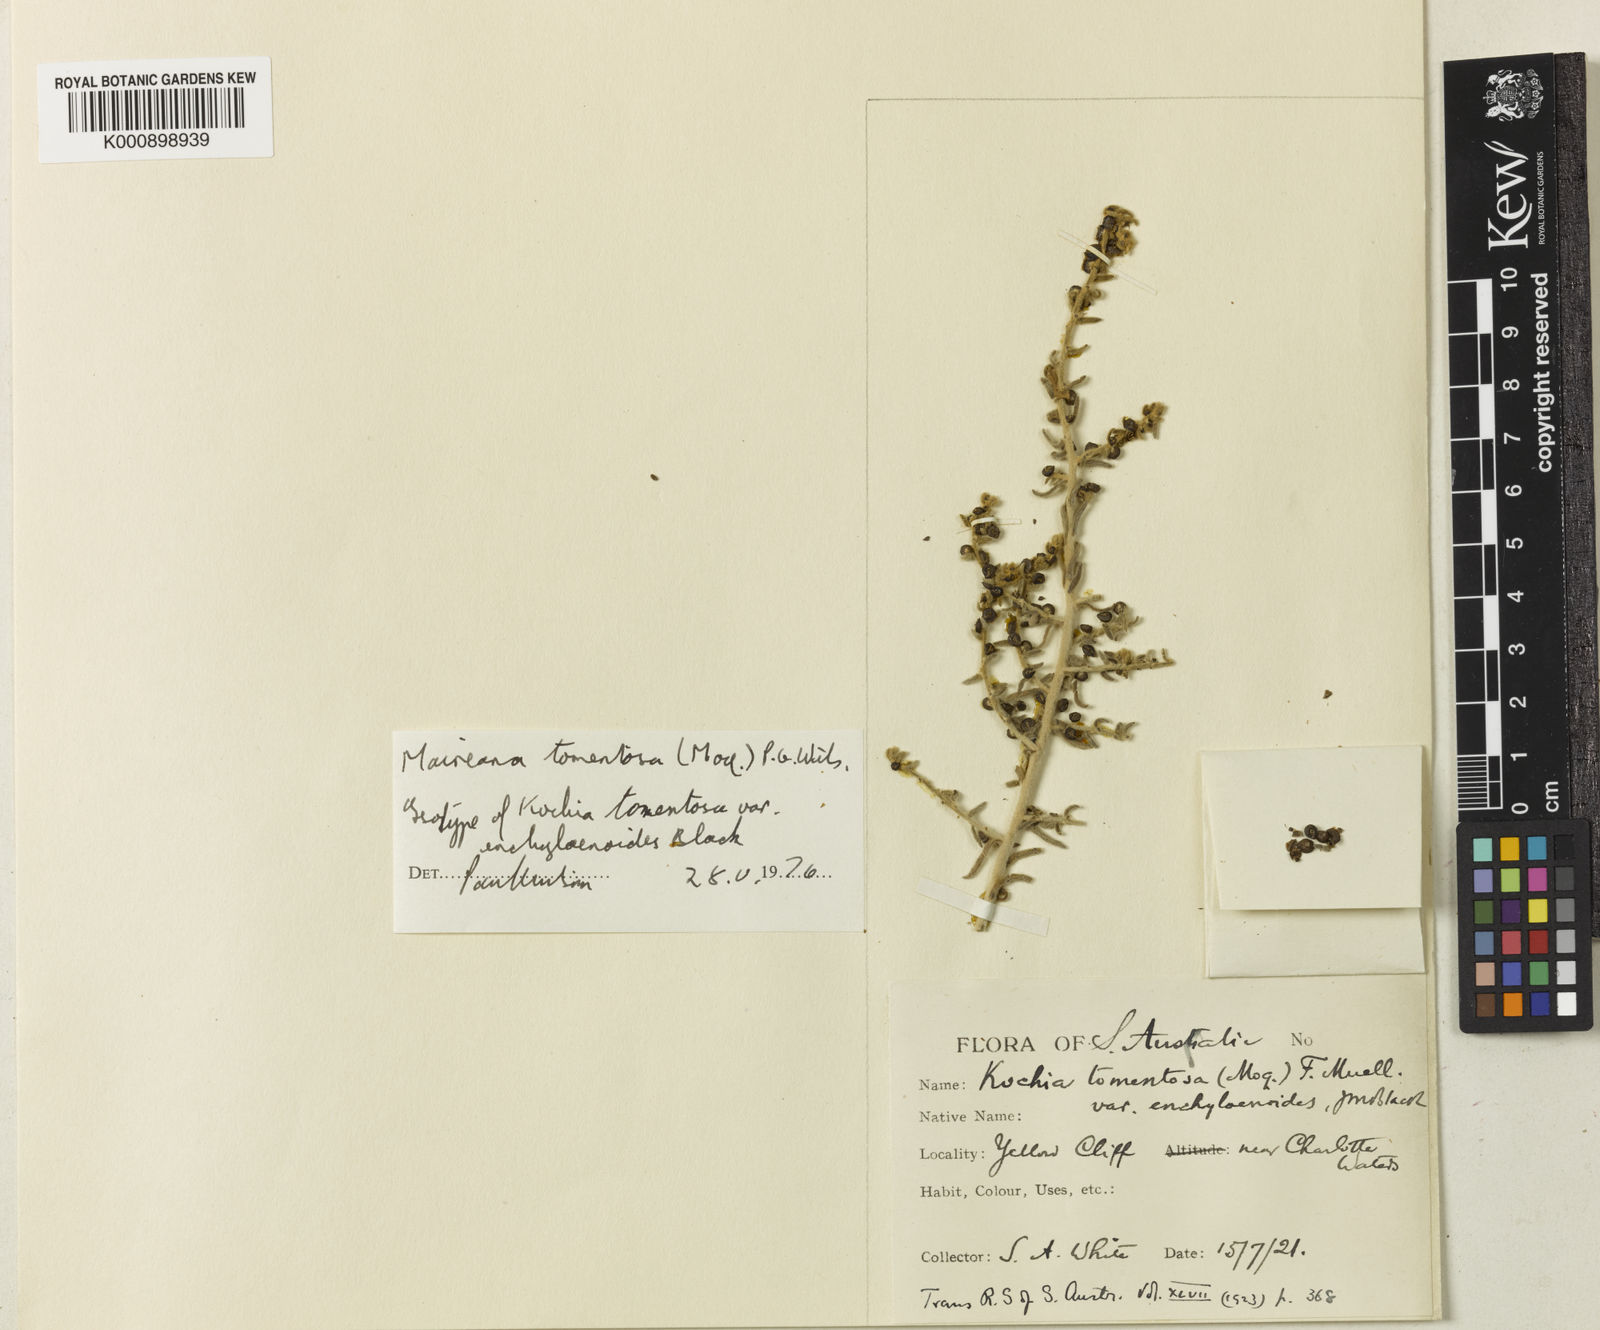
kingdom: Plantae
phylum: Tracheophyta
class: Magnoliopsida
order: Caryophyllales
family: Amaranthaceae
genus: Maireana
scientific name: Maireana
